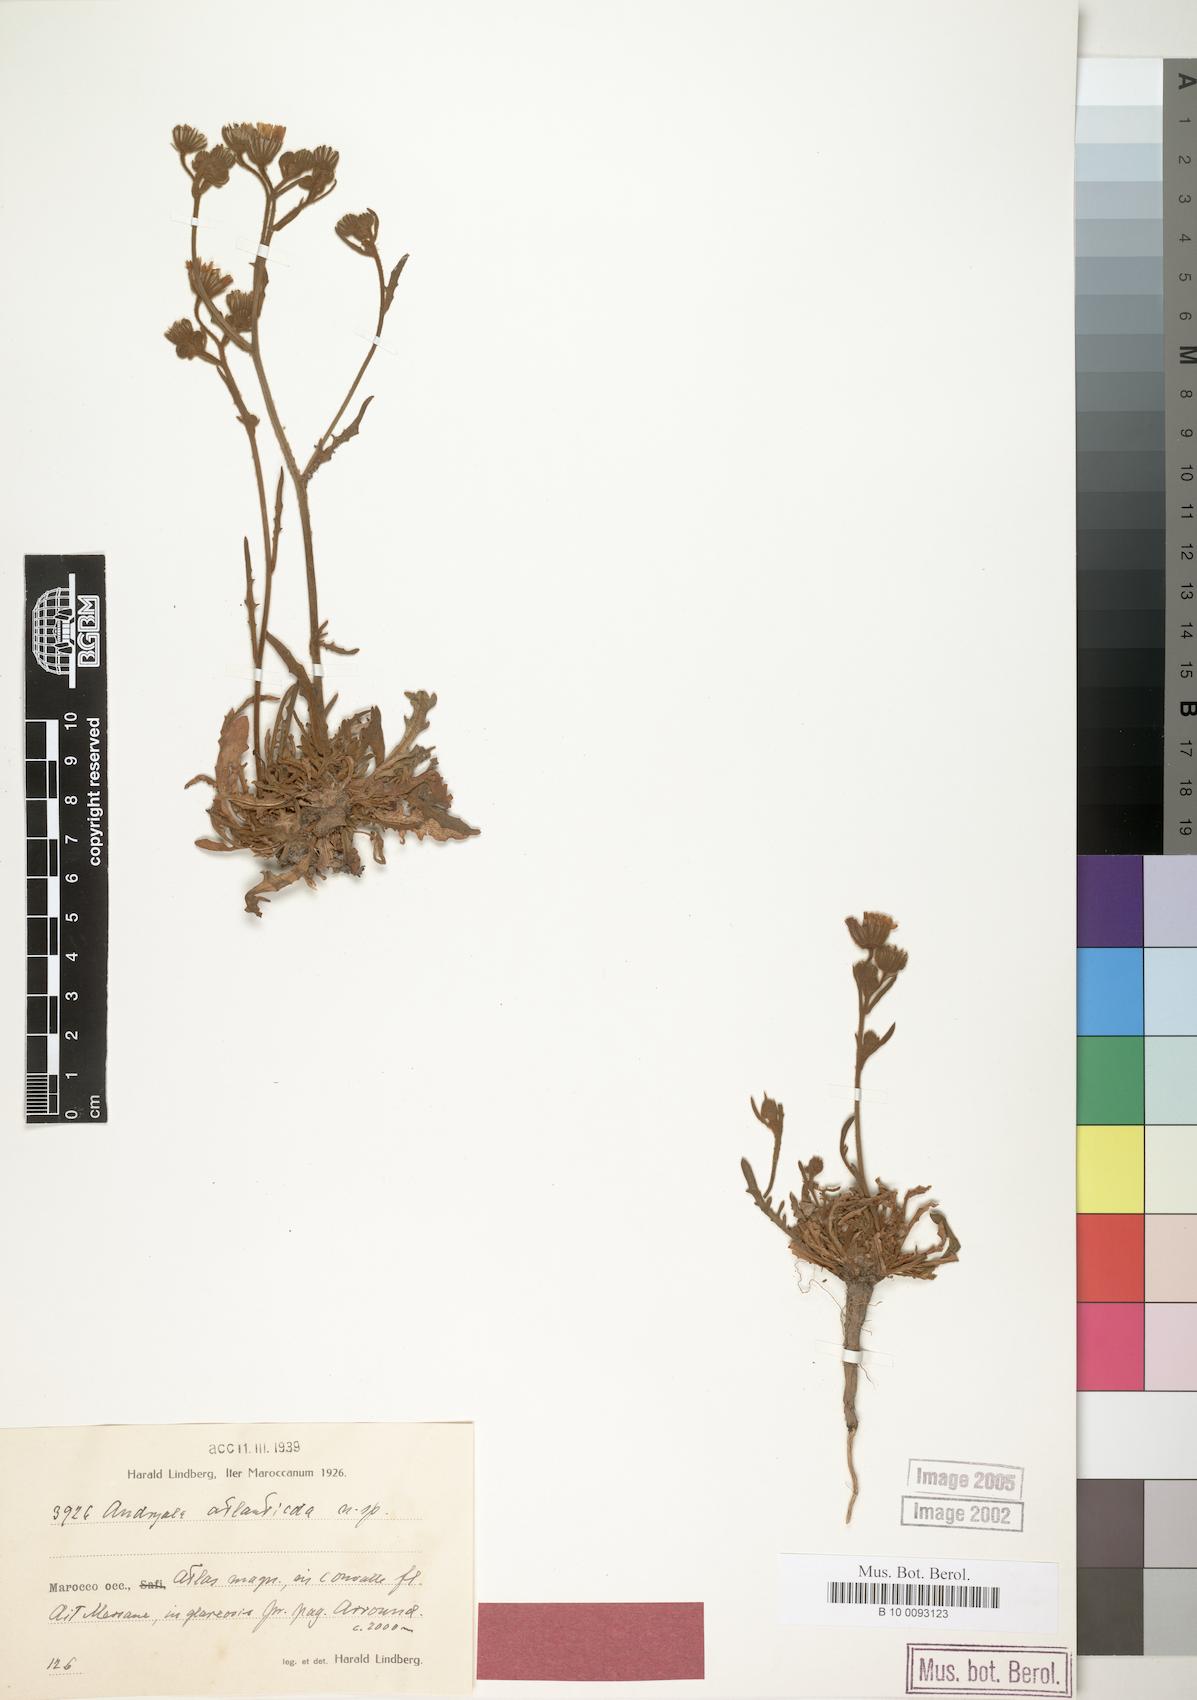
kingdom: Plantae
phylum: Tracheophyta
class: Magnoliopsida
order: Asterales
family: Asteraceae
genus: Andryala
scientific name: Andryala atlanticola
